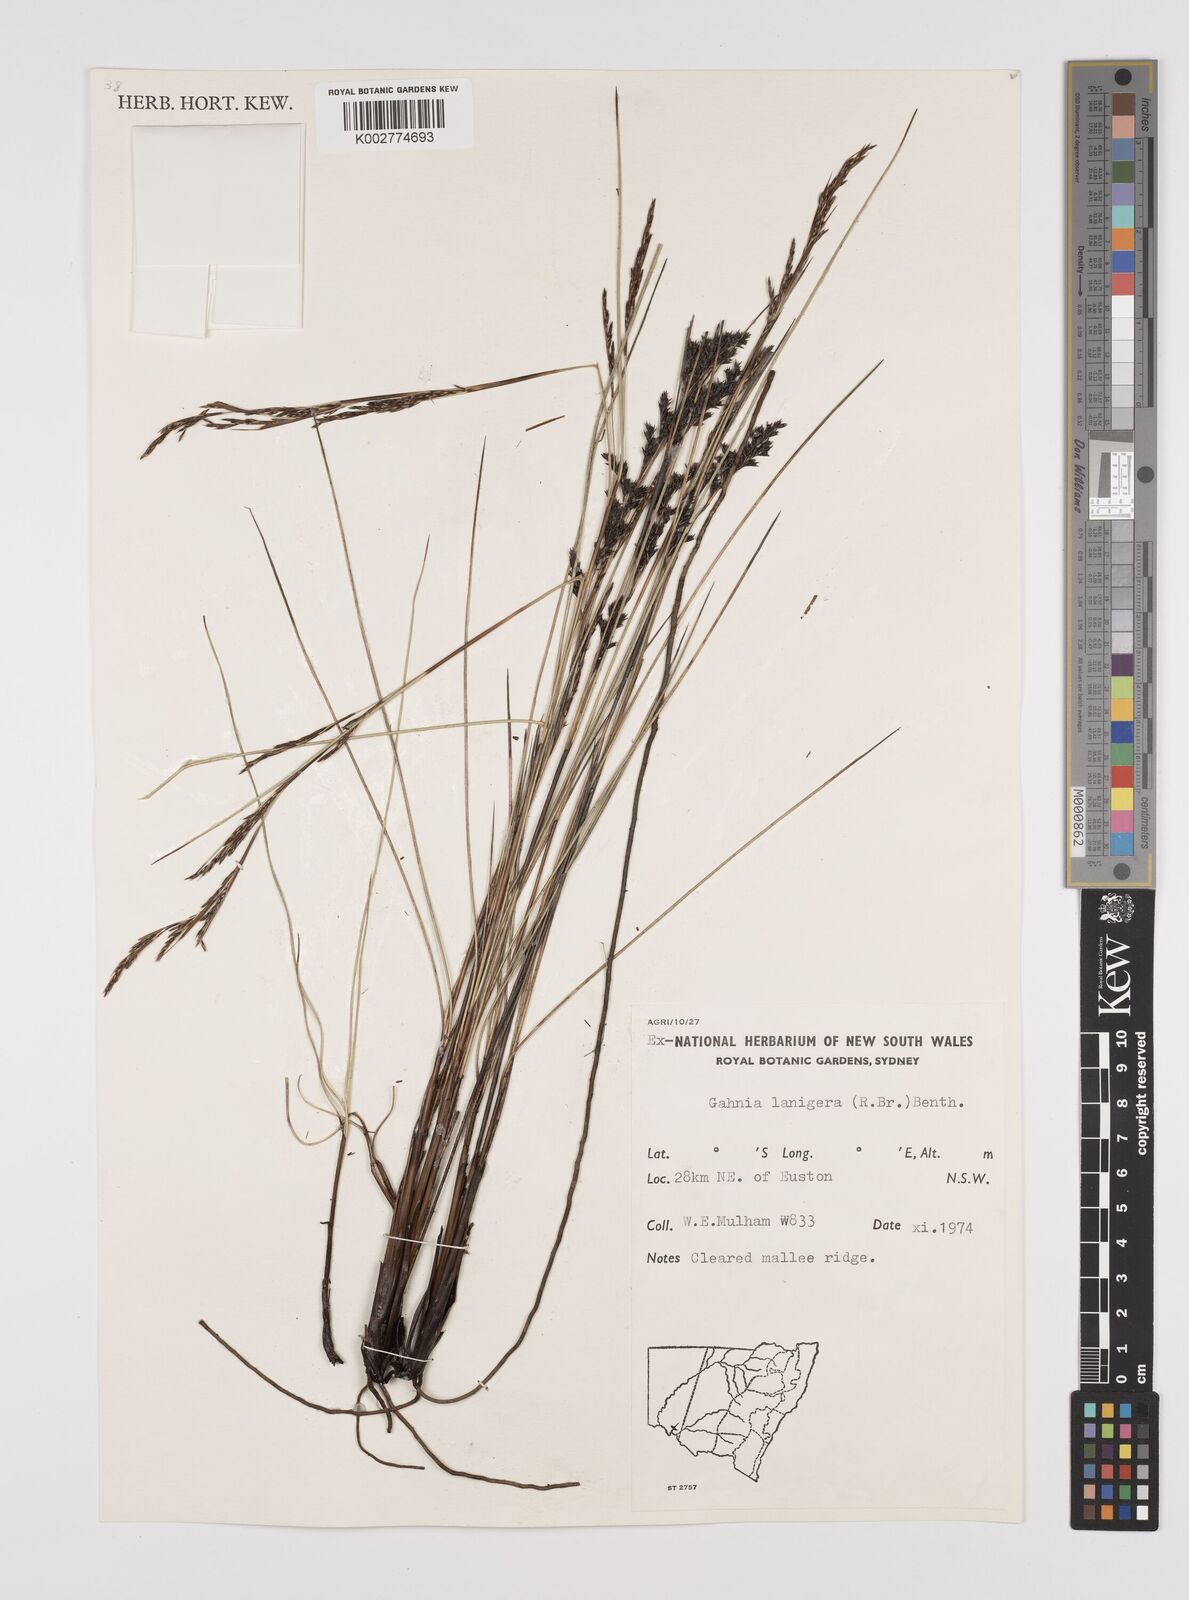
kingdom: Plantae
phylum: Tracheophyta
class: Liliopsida
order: Poales
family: Cyperaceae
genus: Gahnia
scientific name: Gahnia lanigera
